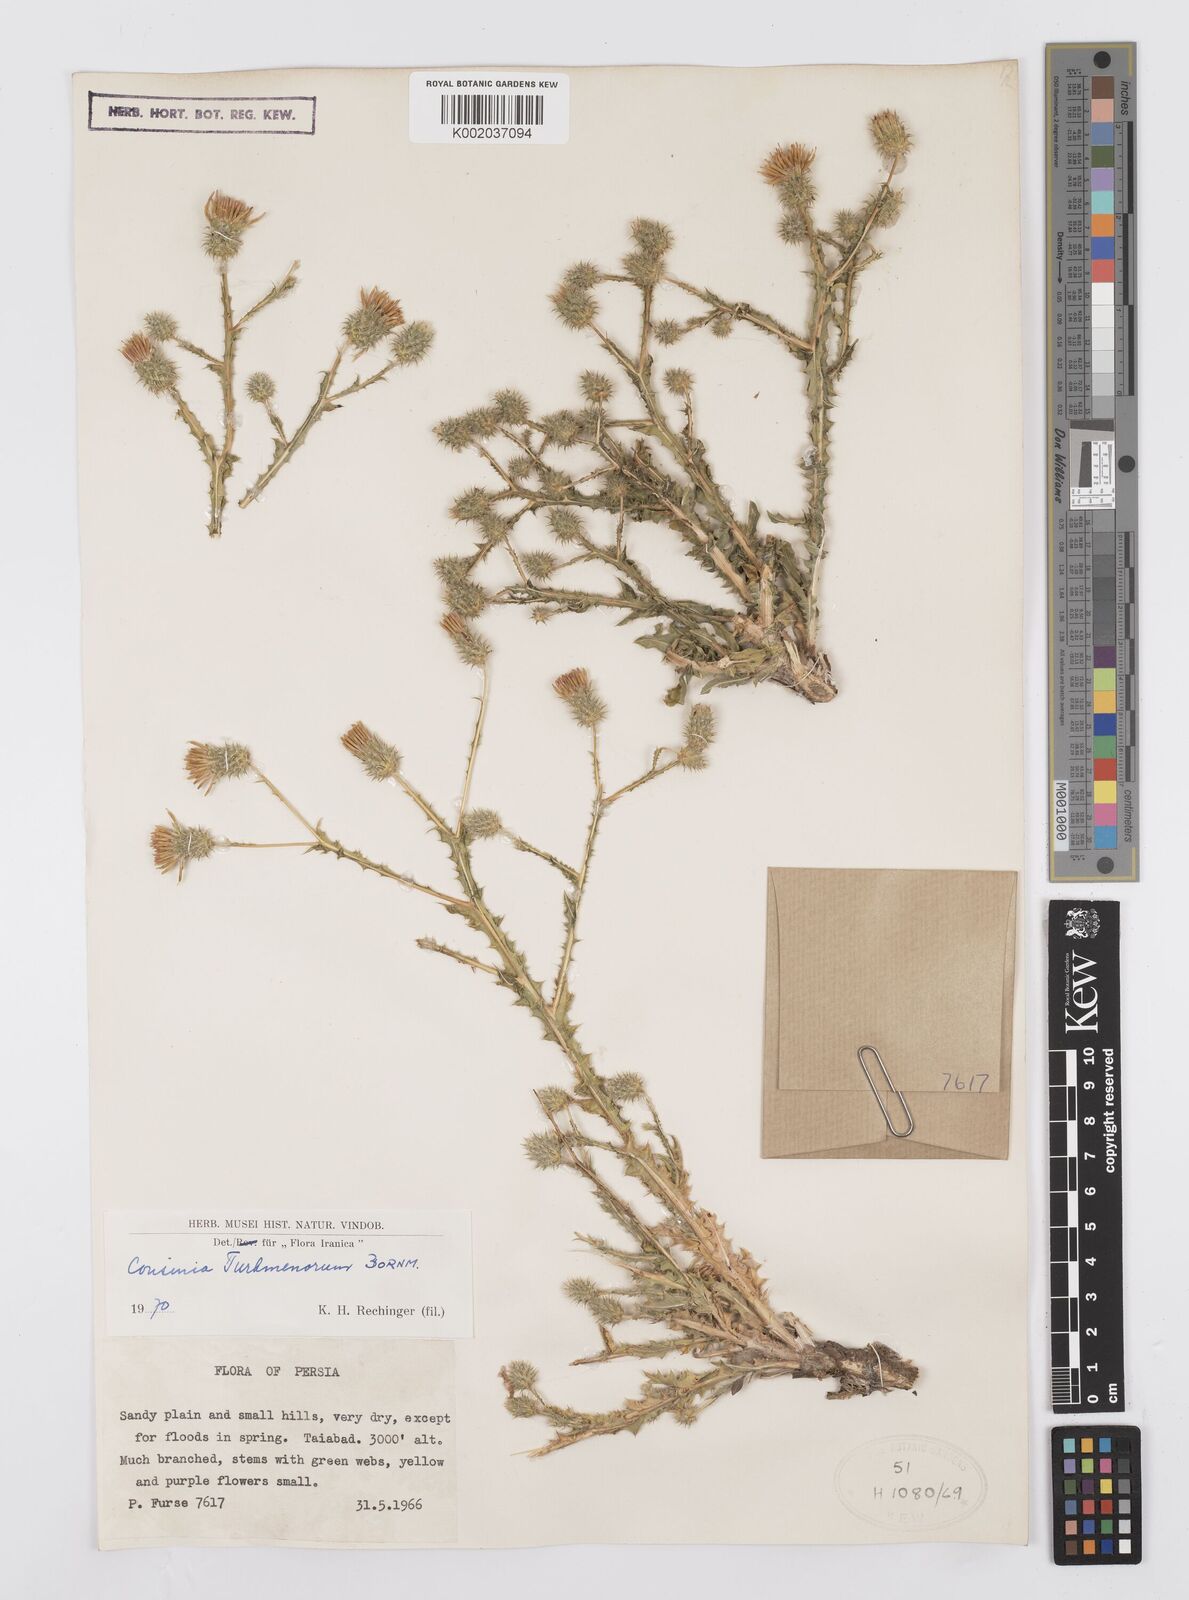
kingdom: Plantae
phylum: Tracheophyta
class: Magnoliopsida
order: Asterales
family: Asteraceae
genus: Cousinia
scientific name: Cousinia turkmenorum
